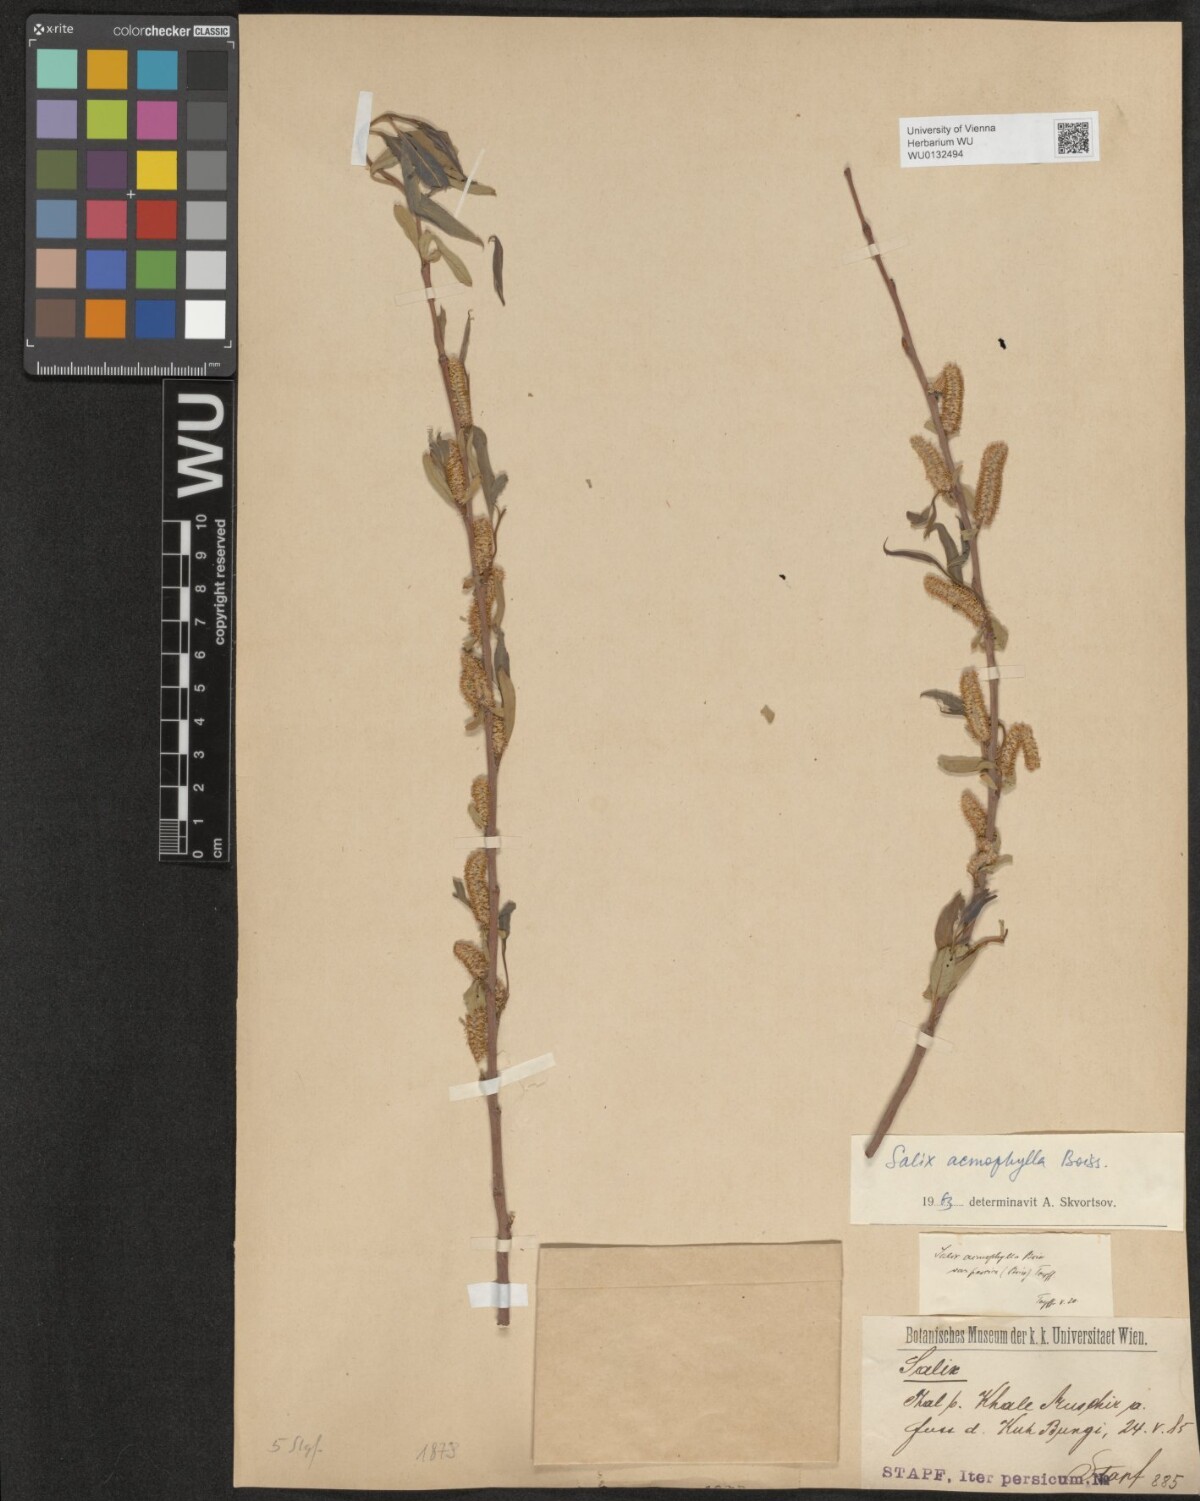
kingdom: Plantae
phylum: Tracheophyta
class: Magnoliopsida
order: Malpighiales
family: Salicaceae
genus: Salix
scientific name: Salix acmophylla
